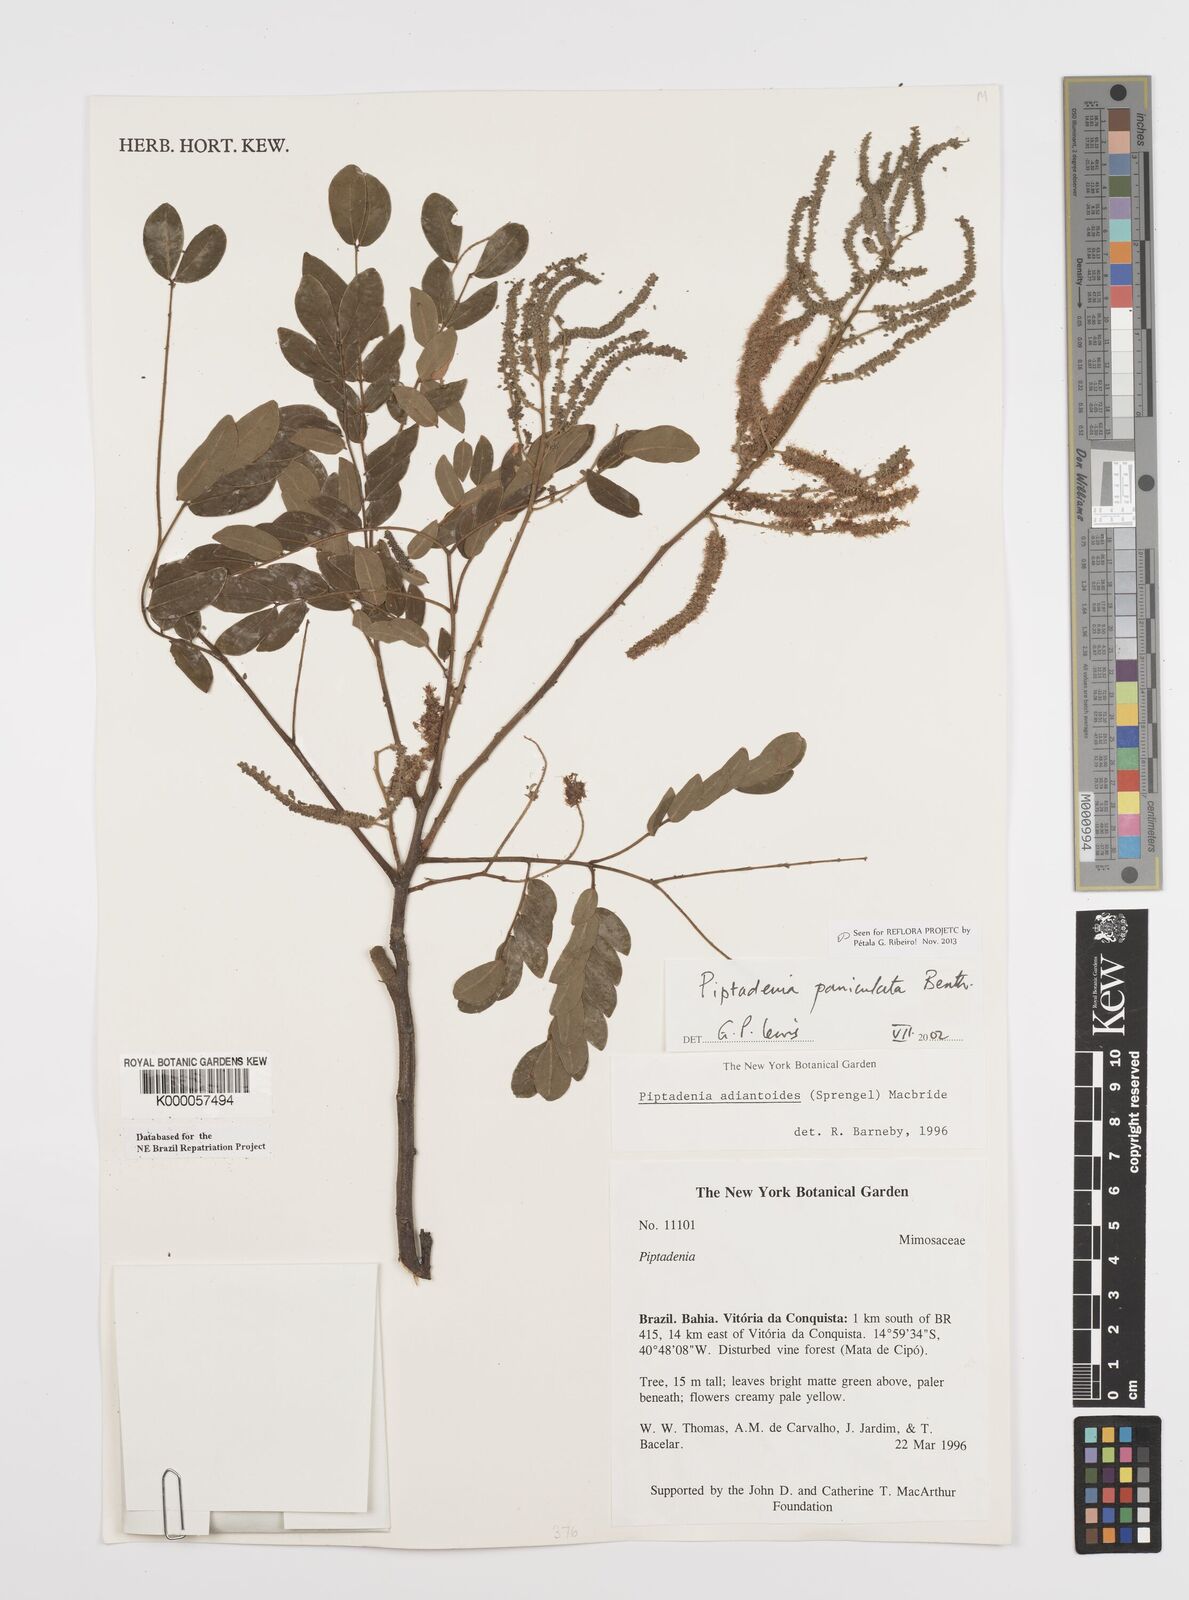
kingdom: Plantae
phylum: Tracheophyta
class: Magnoliopsida
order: Fabales
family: Fabaceae
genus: Piptadenia
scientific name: Piptadenia paniculata
